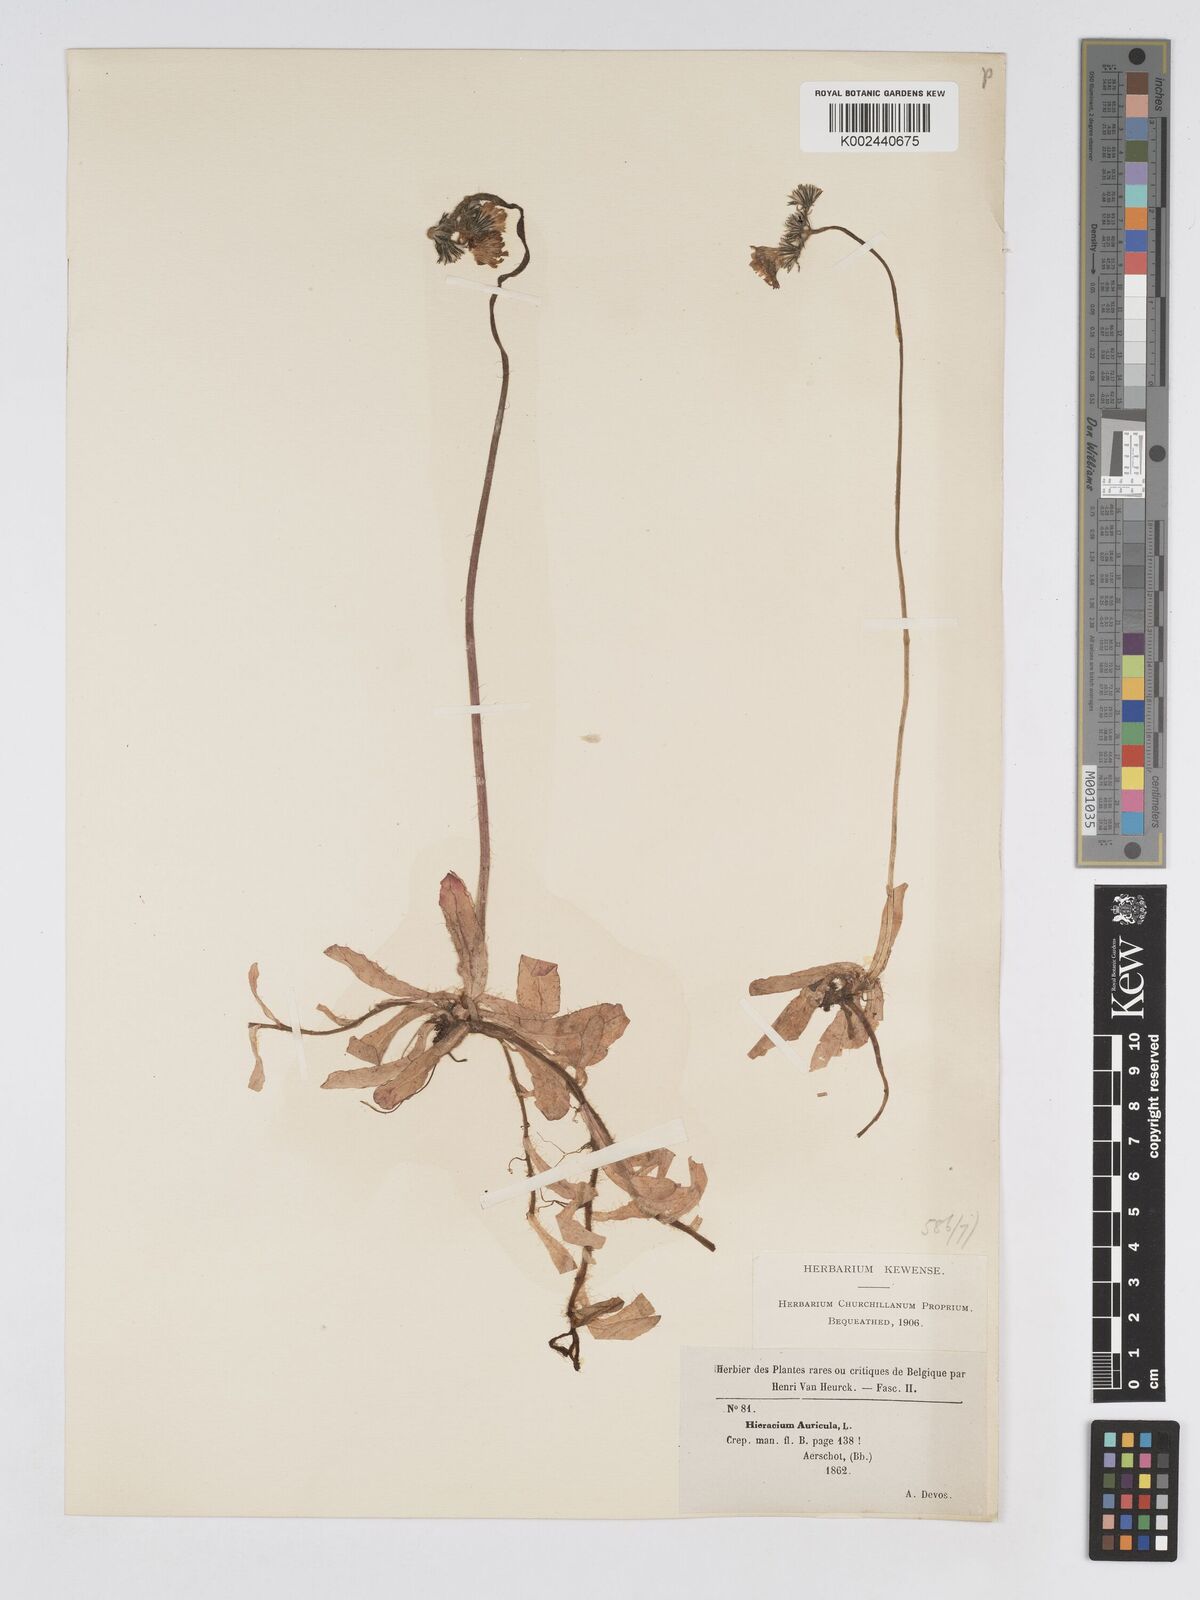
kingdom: Plantae
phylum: Tracheophyta
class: Magnoliopsida
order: Asterales
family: Asteraceae
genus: Pilosella
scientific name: Pilosella floribunda
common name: Glaucous hawkweed
